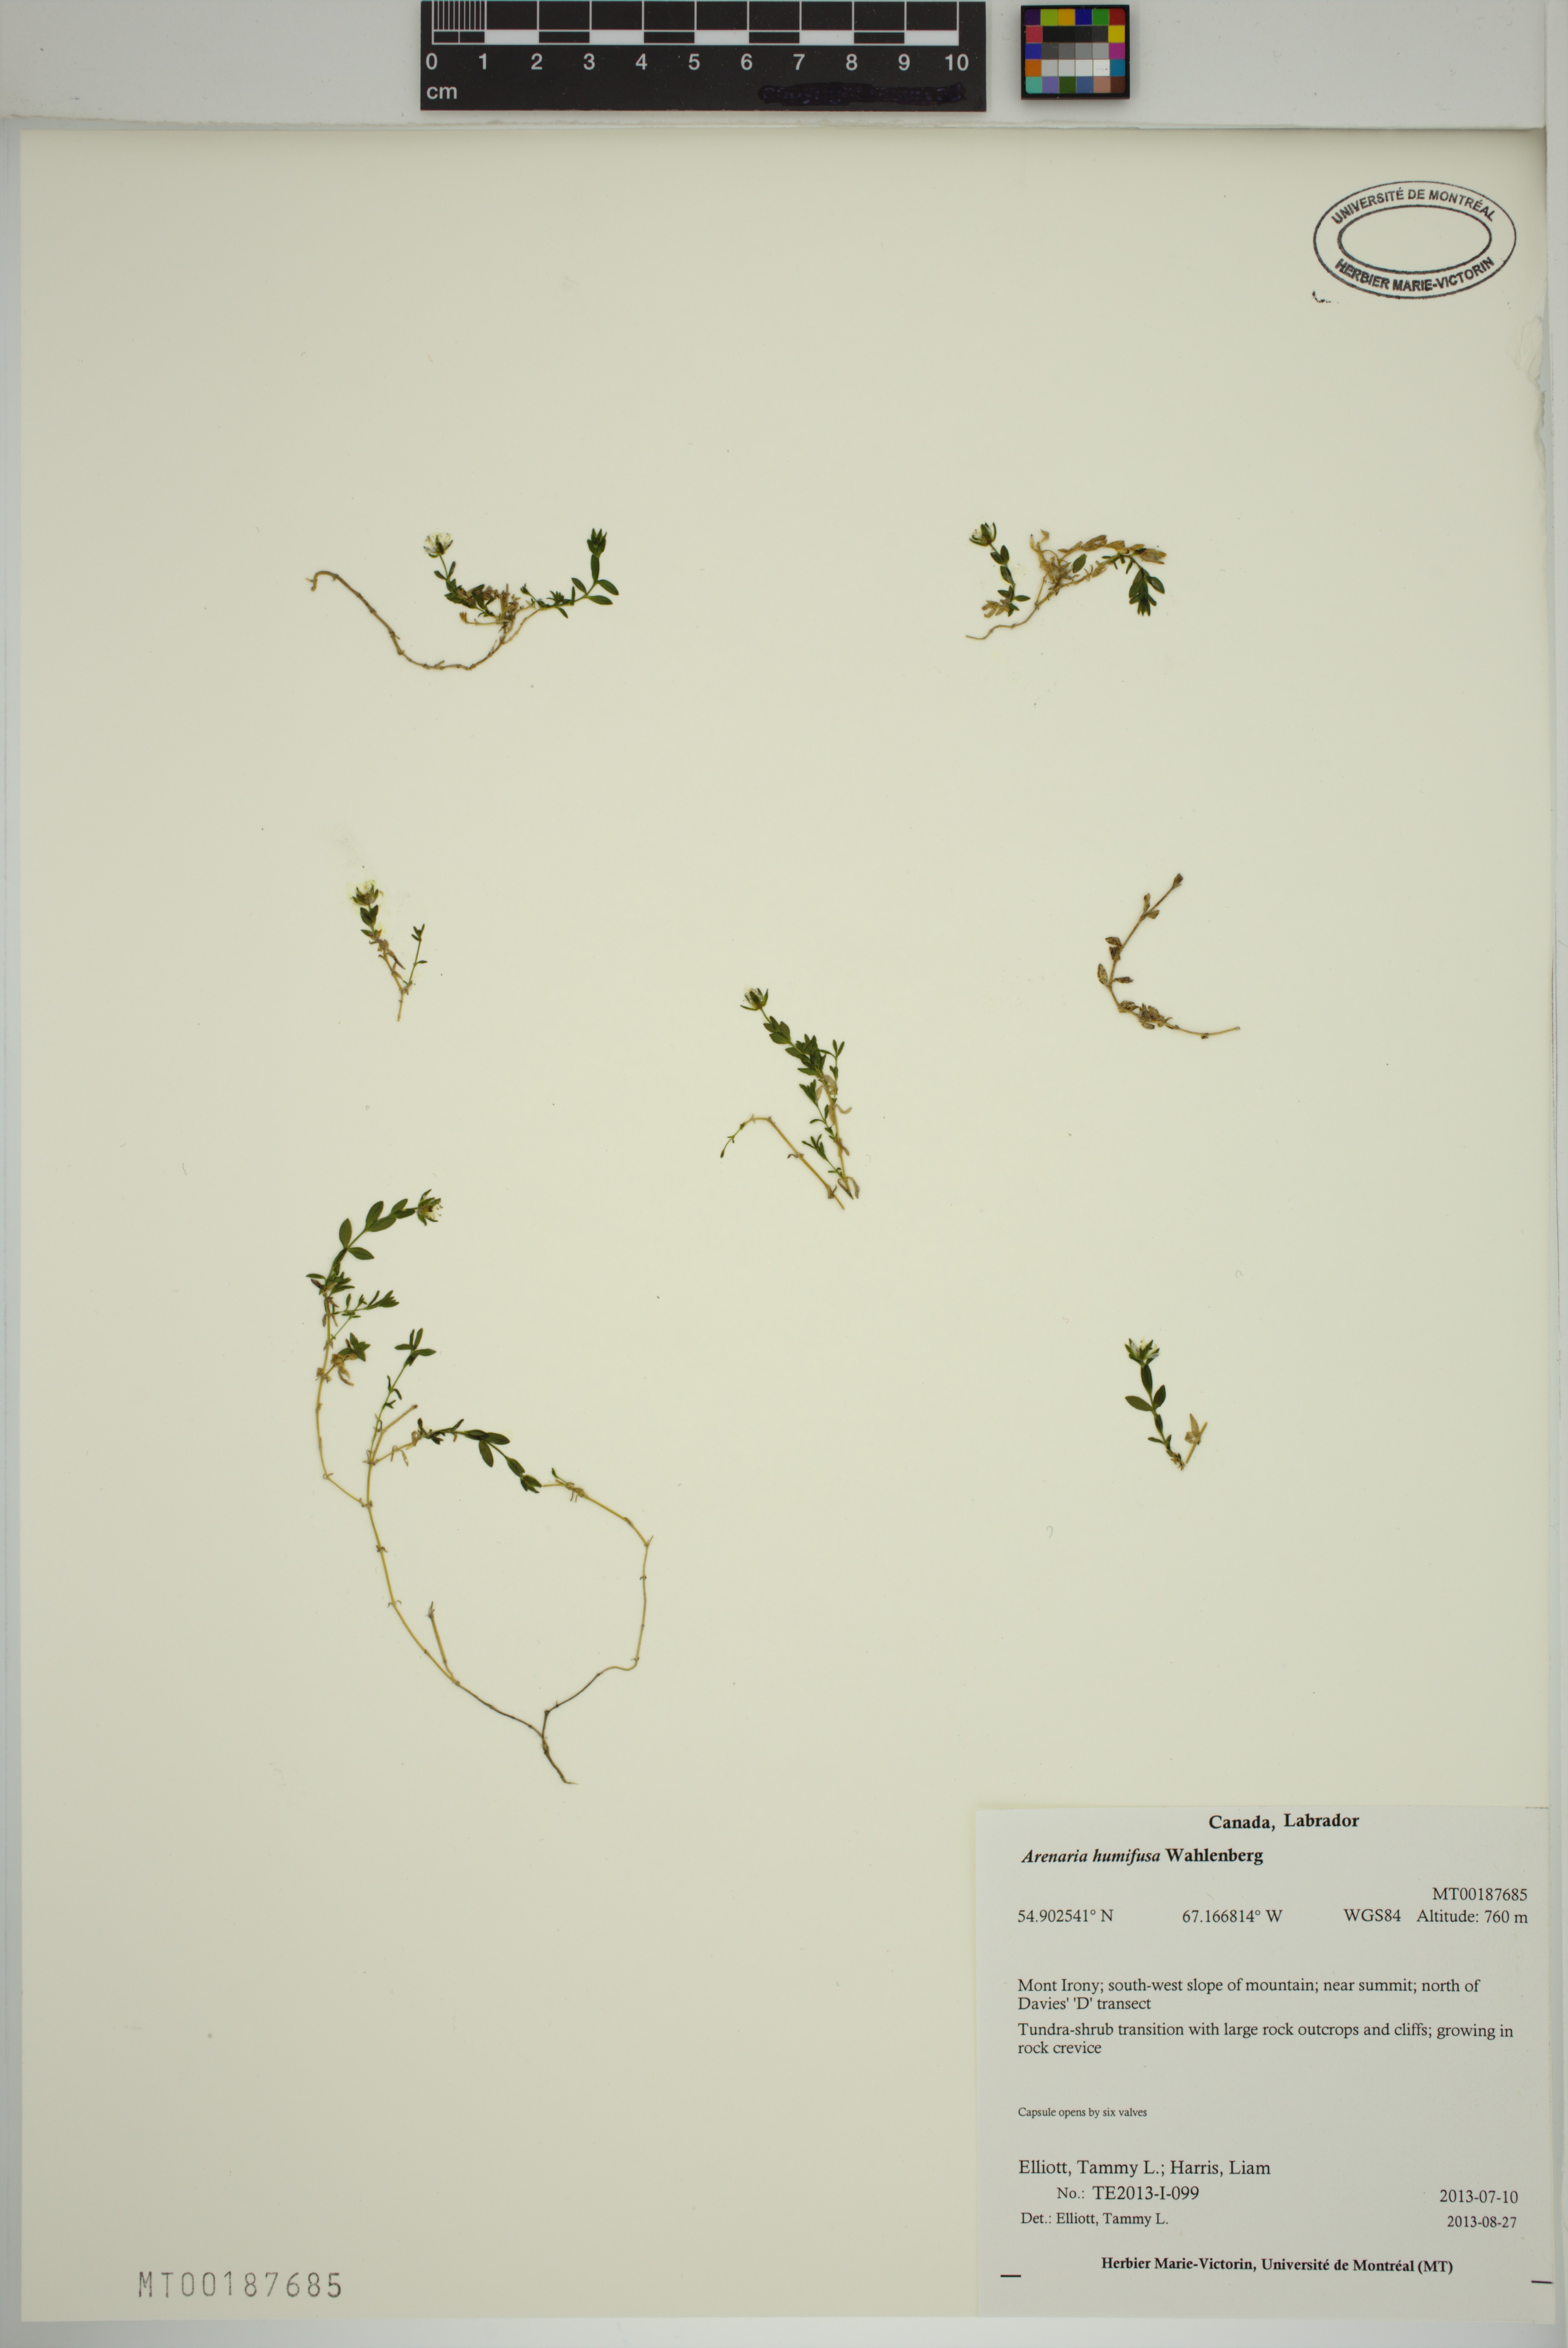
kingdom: Plantae
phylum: Tracheophyta
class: Magnoliopsida
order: Caryophyllales
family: Caryophyllaceae
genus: Arenaria
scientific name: Arenaria humifusa
